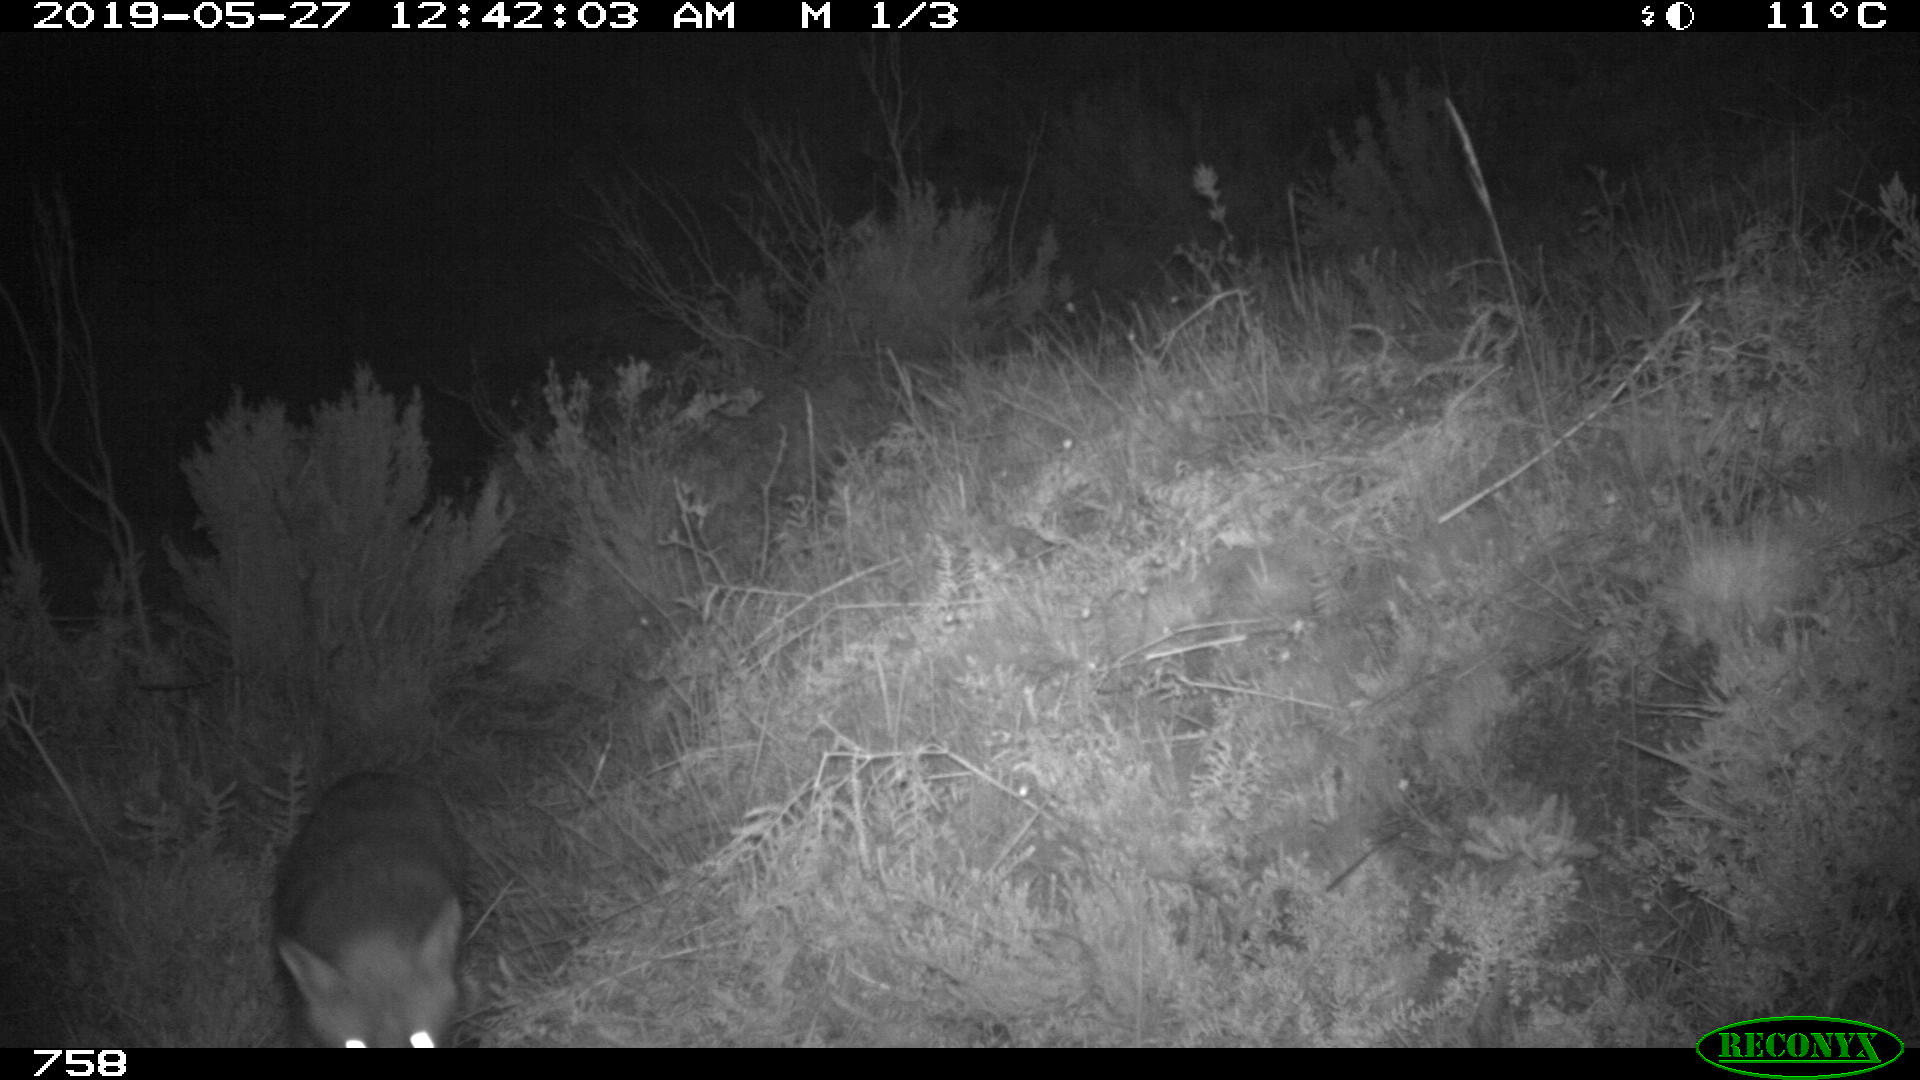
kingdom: Animalia
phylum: Chordata
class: Mammalia
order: Carnivora
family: Canidae
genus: Vulpes
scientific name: Vulpes vulpes
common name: Red fox
